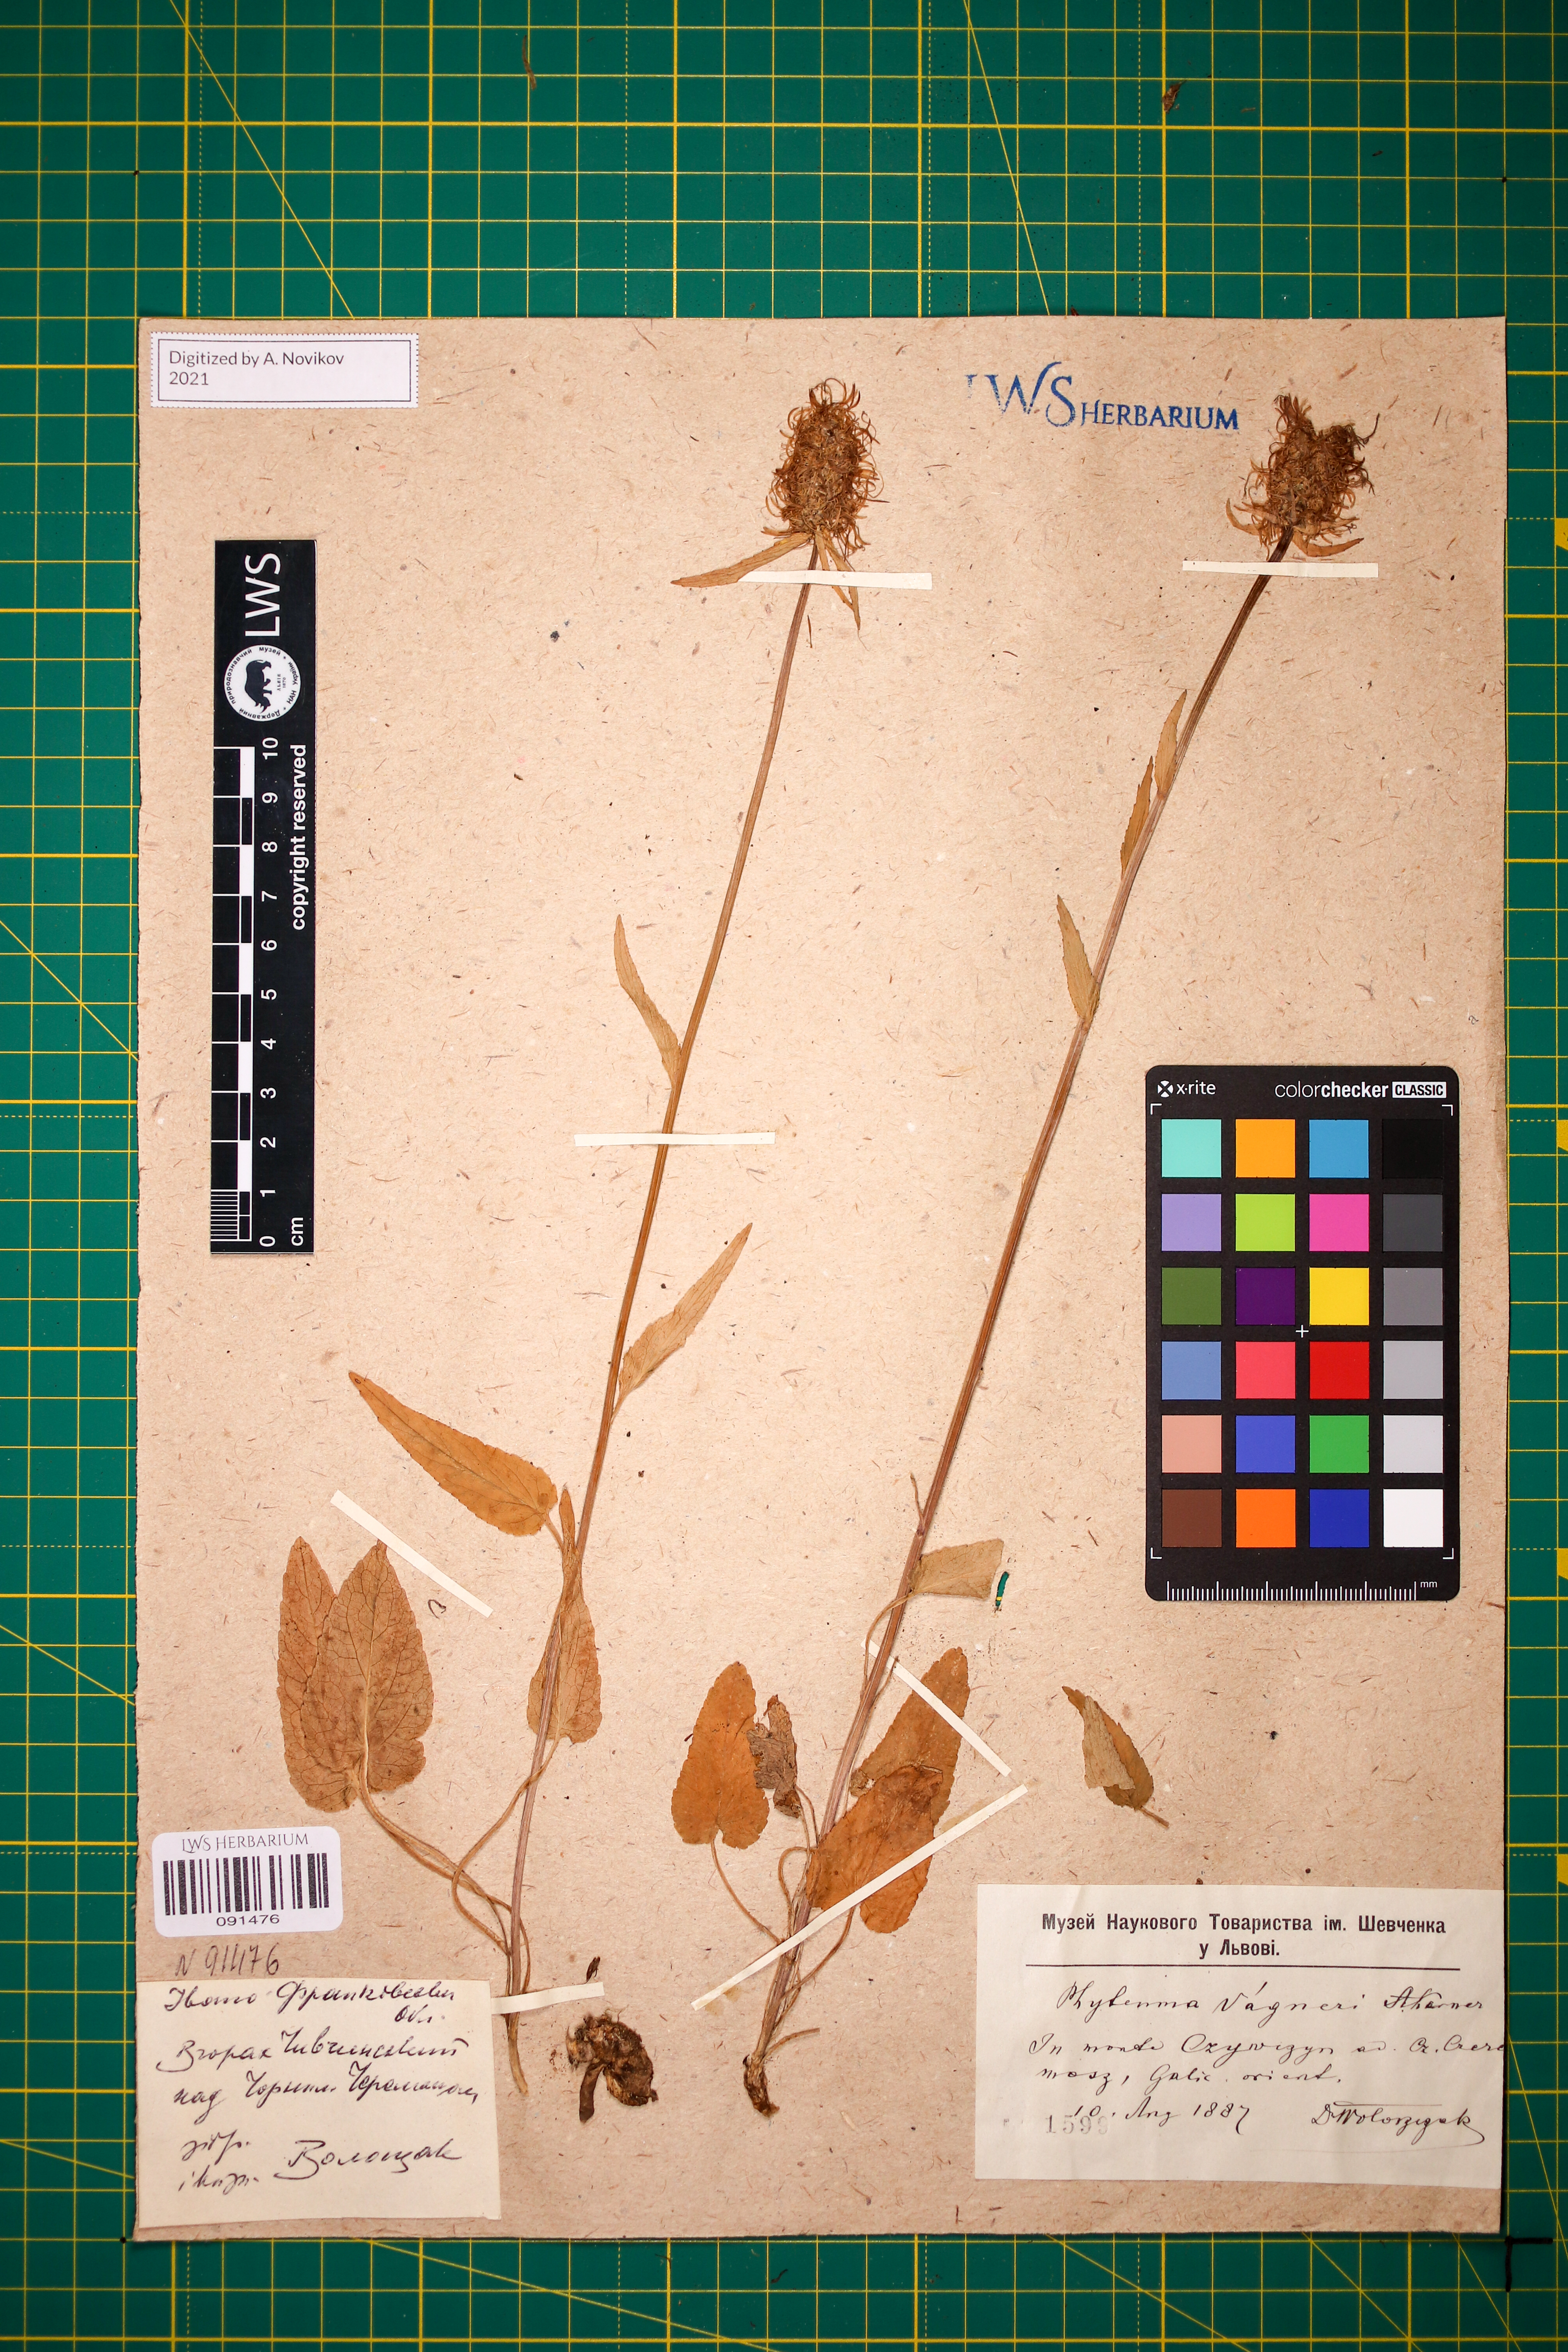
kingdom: Plantae
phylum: Tracheophyta
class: Magnoliopsida
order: Asterales
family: Campanulaceae
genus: Phyteuma
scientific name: Phyteuma vagneri
